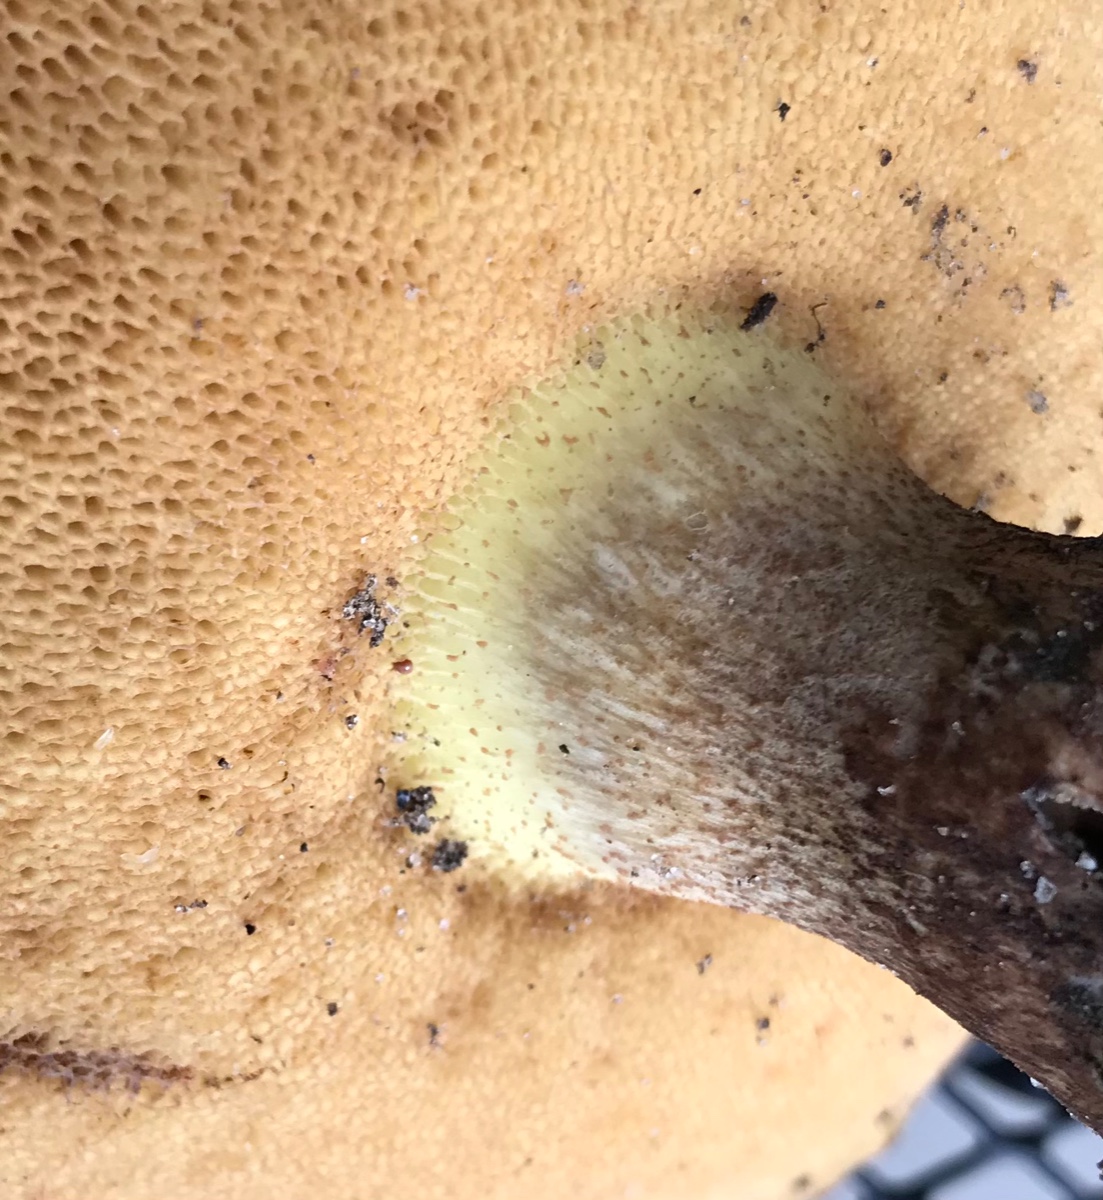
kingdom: Fungi
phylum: Basidiomycota
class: Agaricomycetes
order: Boletales
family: Suillaceae
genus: Suillus
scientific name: Suillus
